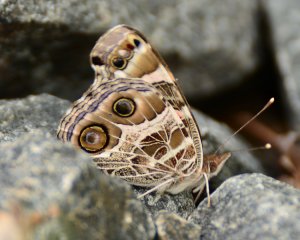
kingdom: Animalia
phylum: Arthropoda
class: Insecta
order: Lepidoptera
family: Nymphalidae
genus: Vanessa
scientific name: Vanessa virginiensis
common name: American Lady
